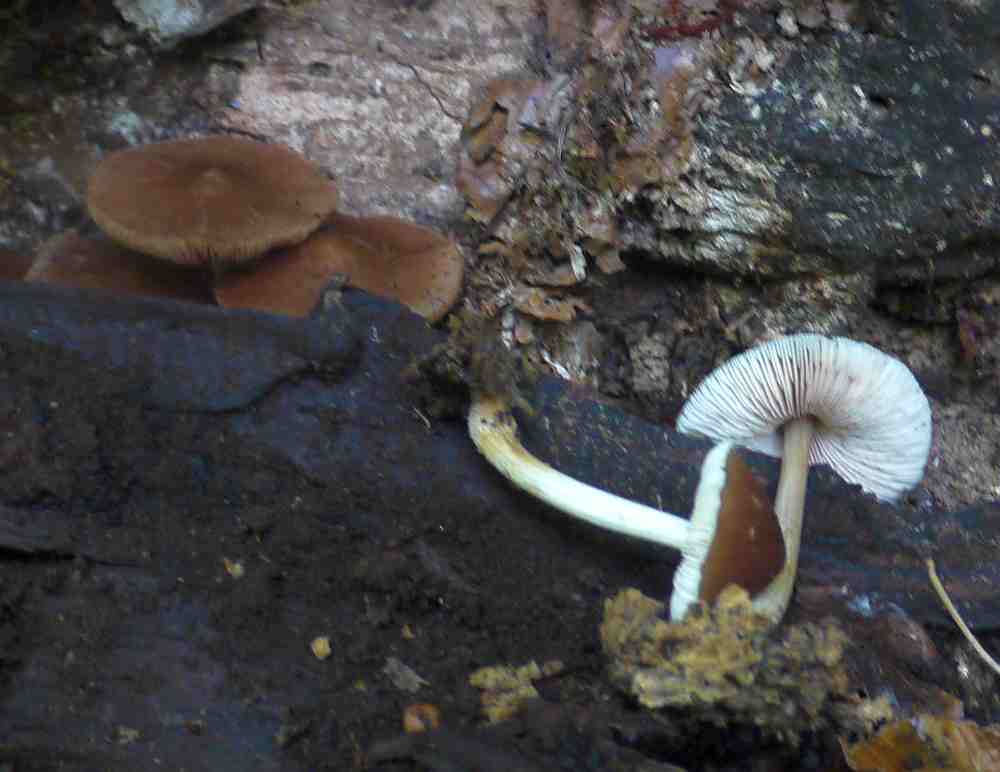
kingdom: Fungi
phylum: Basidiomycota
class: Agaricomycetes
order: Agaricales
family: Pluteaceae
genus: Pluteus
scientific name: Pluteus phlebophorus
